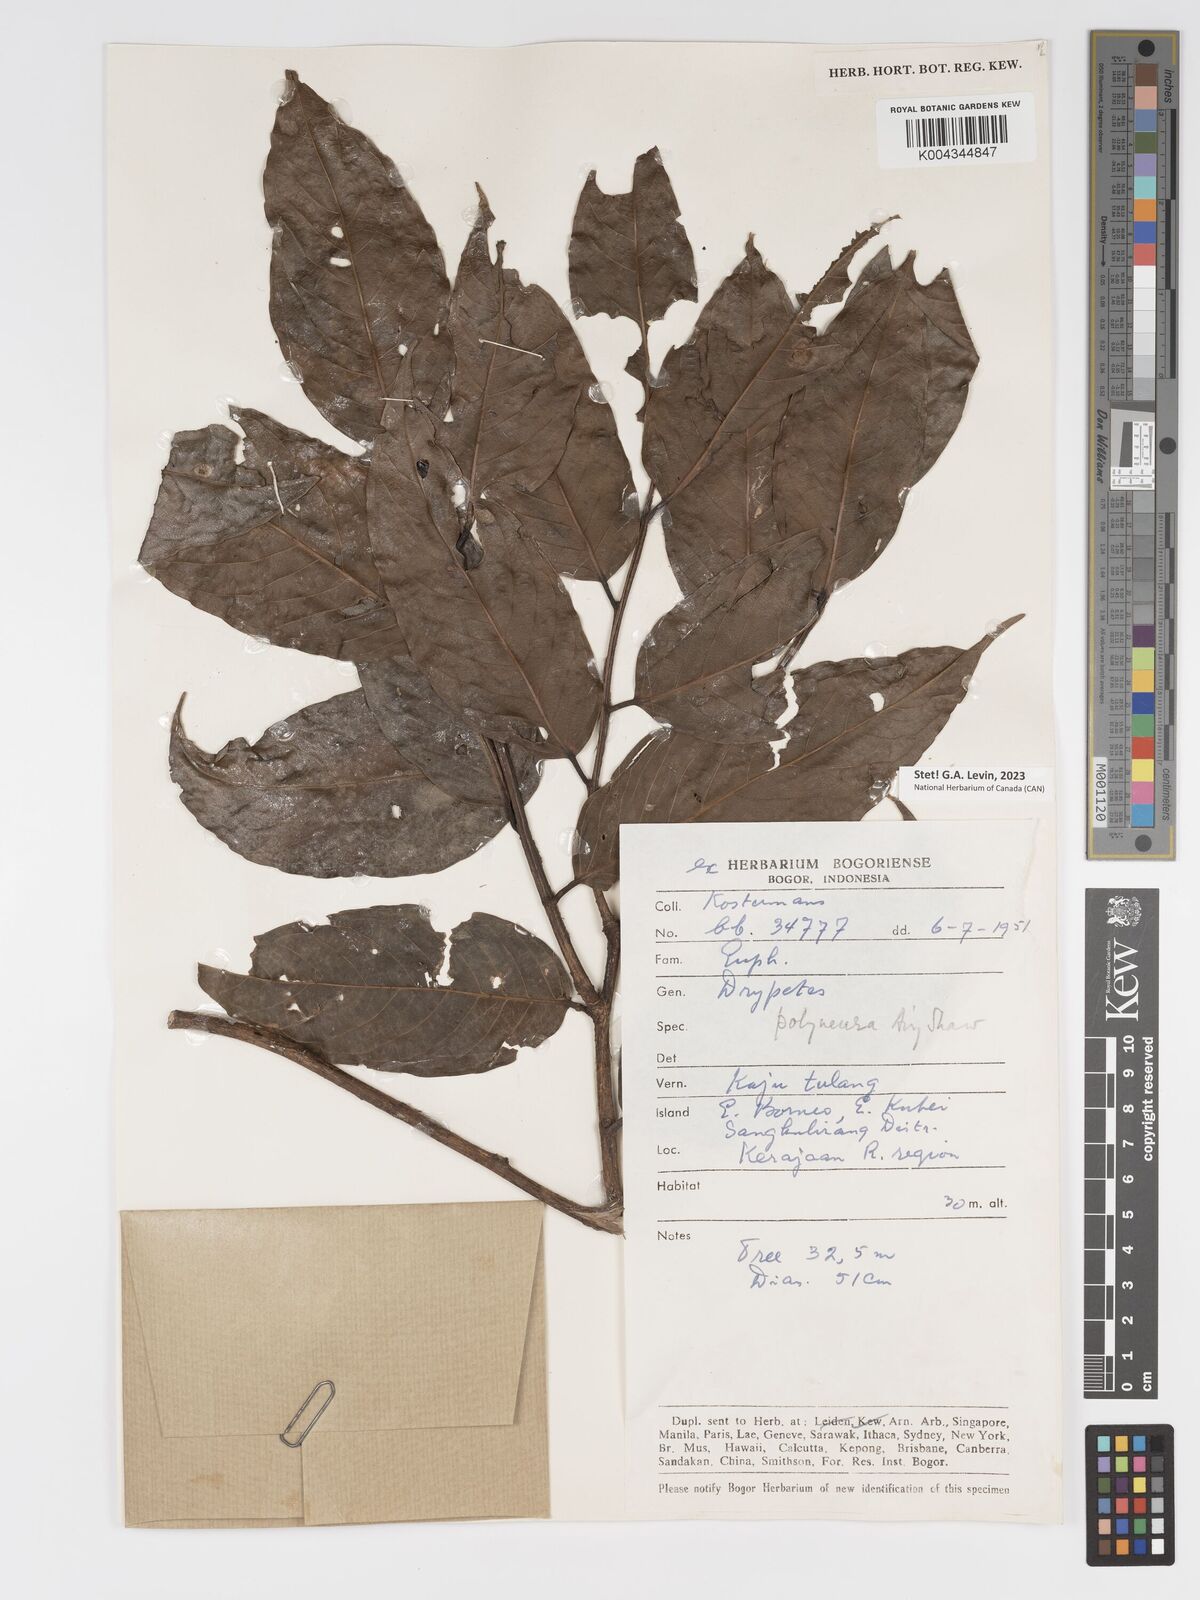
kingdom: Plantae
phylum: Tracheophyta
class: Magnoliopsida
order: Malpighiales
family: Putranjivaceae
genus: Drypetes
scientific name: Drypetes polyneura
